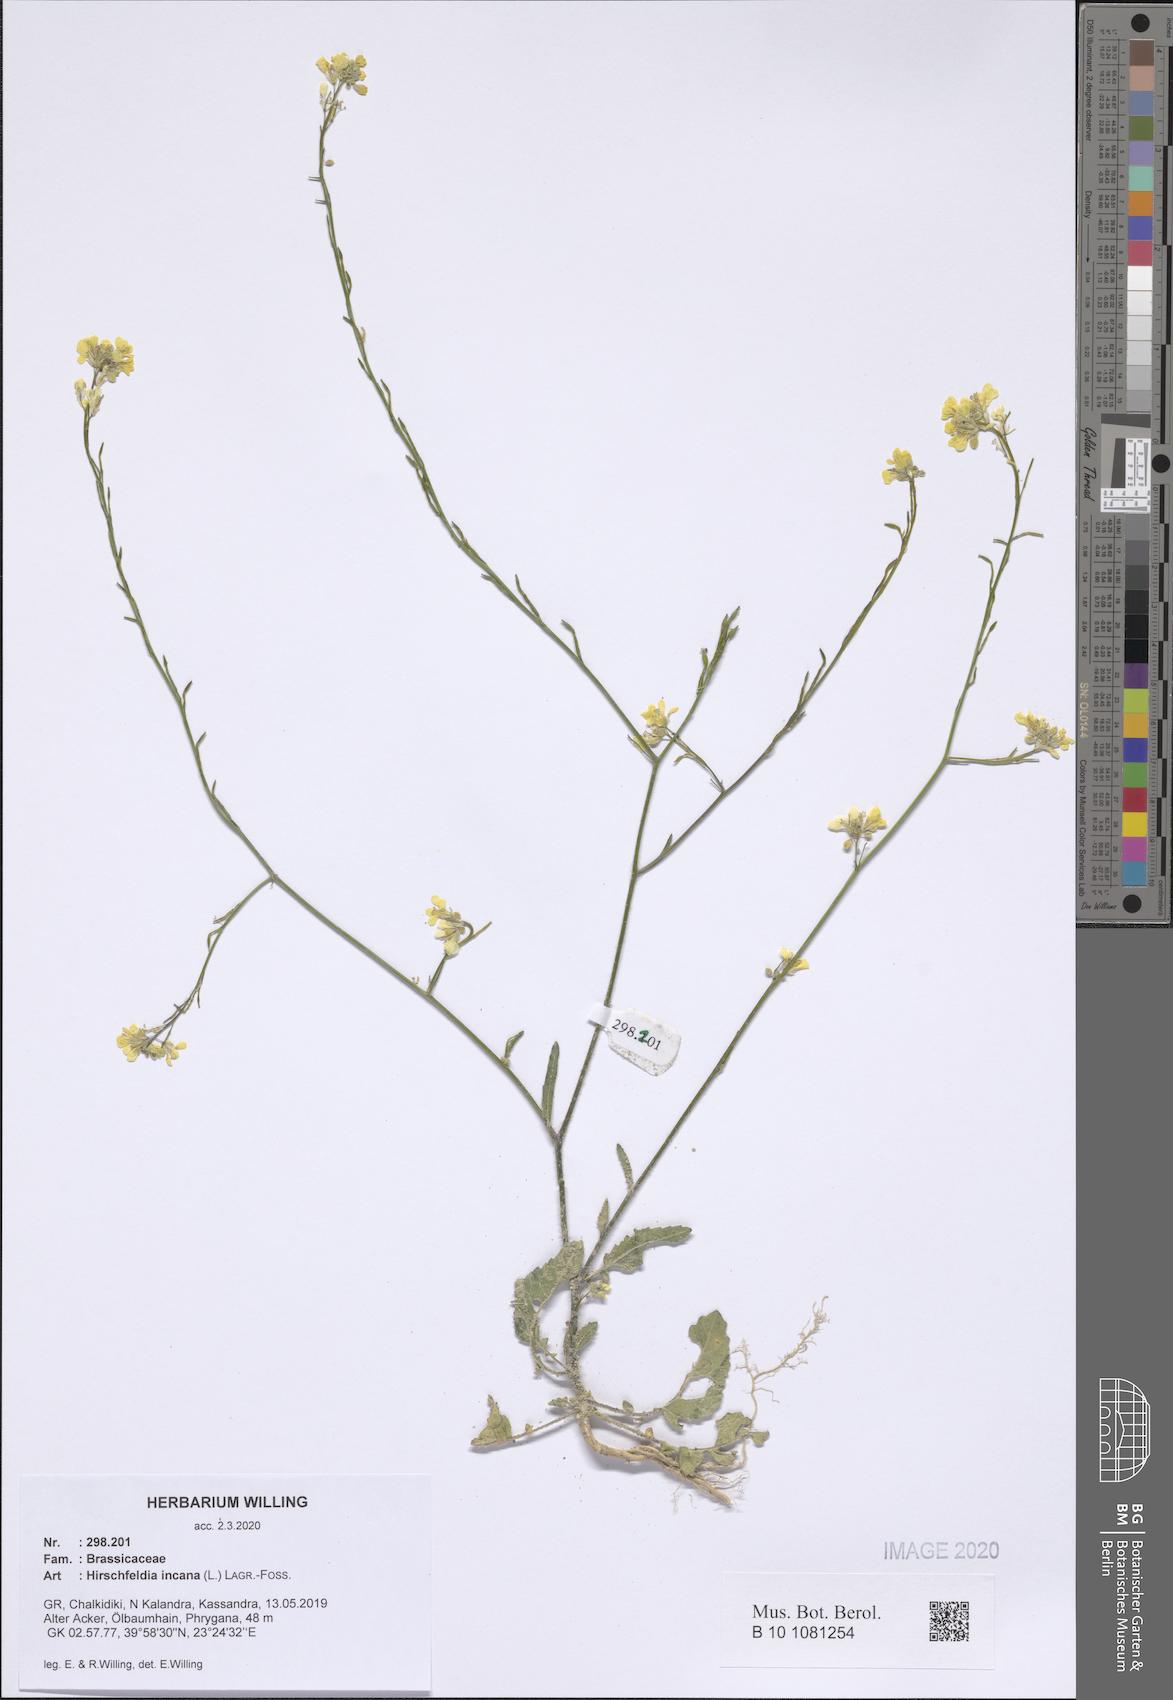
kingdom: Plantae
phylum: Tracheophyta
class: Magnoliopsida
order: Brassicales
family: Brassicaceae
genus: Hirschfeldia
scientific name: Hirschfeldia incana
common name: Hoary mustard
